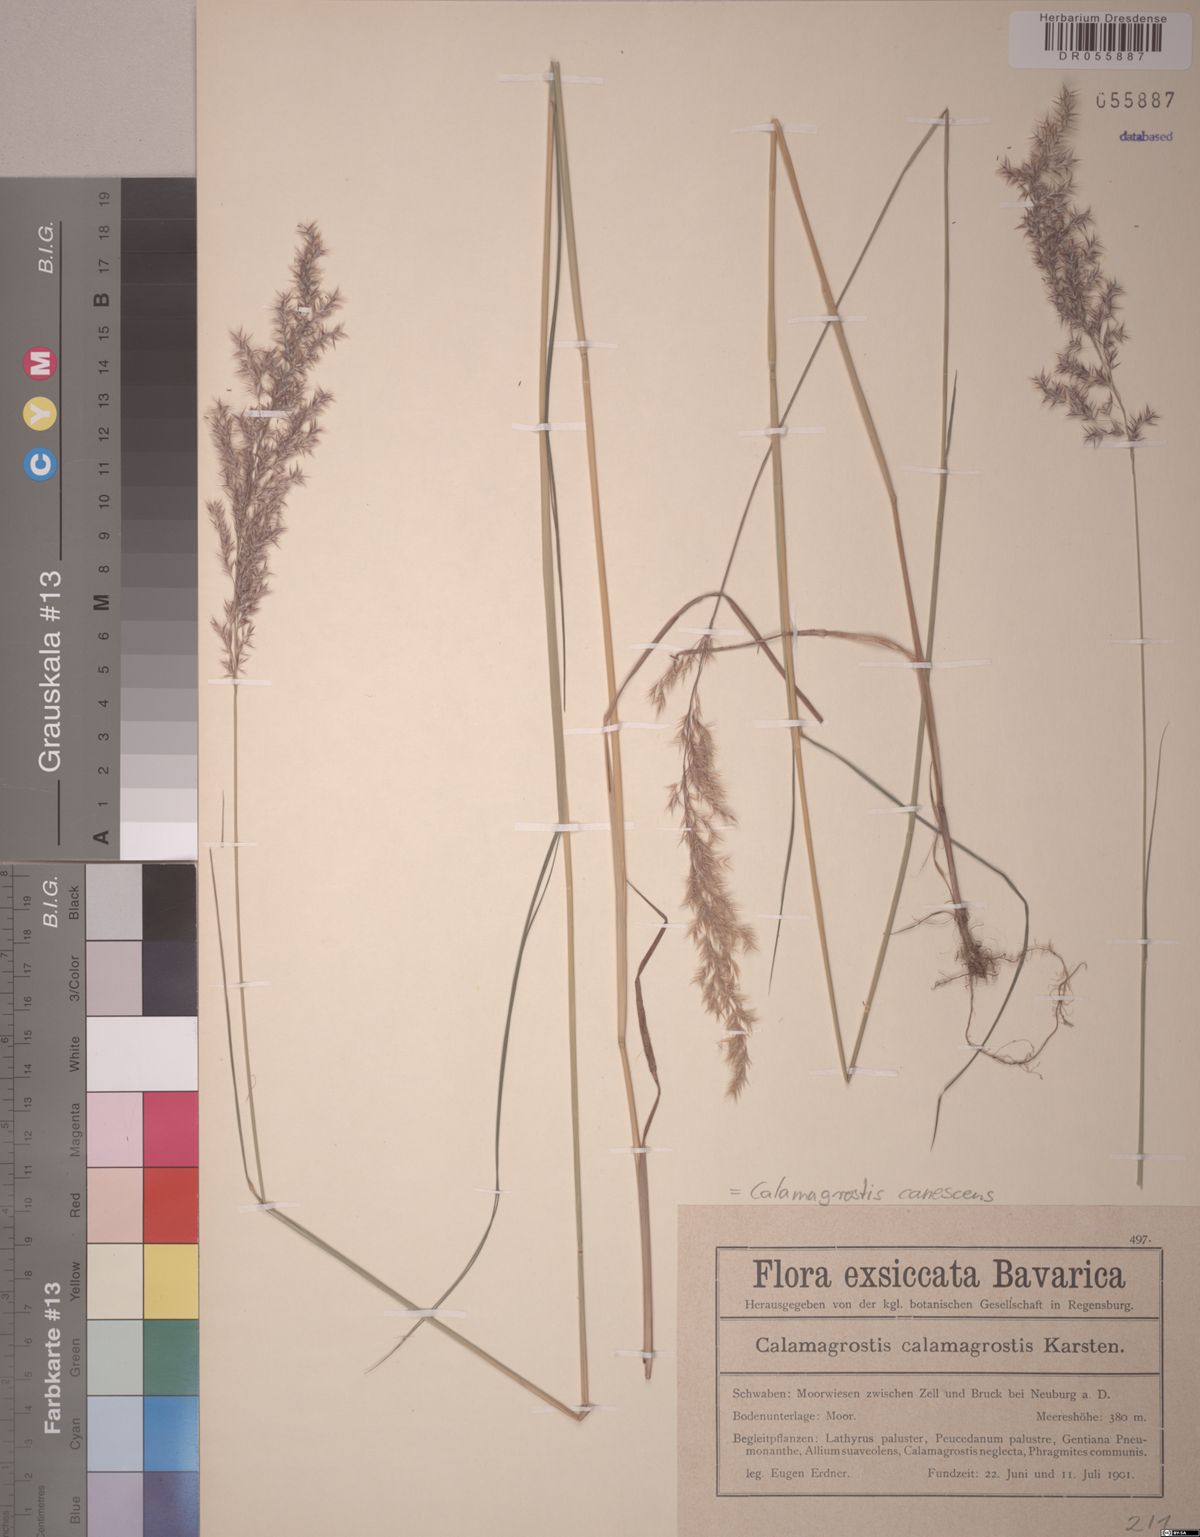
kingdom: Plantae
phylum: Tracheophyta
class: Liliopsida
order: Poales
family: Poaceae
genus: Calamagrostis
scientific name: Calamagrostis canescens
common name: Purple small-reed
